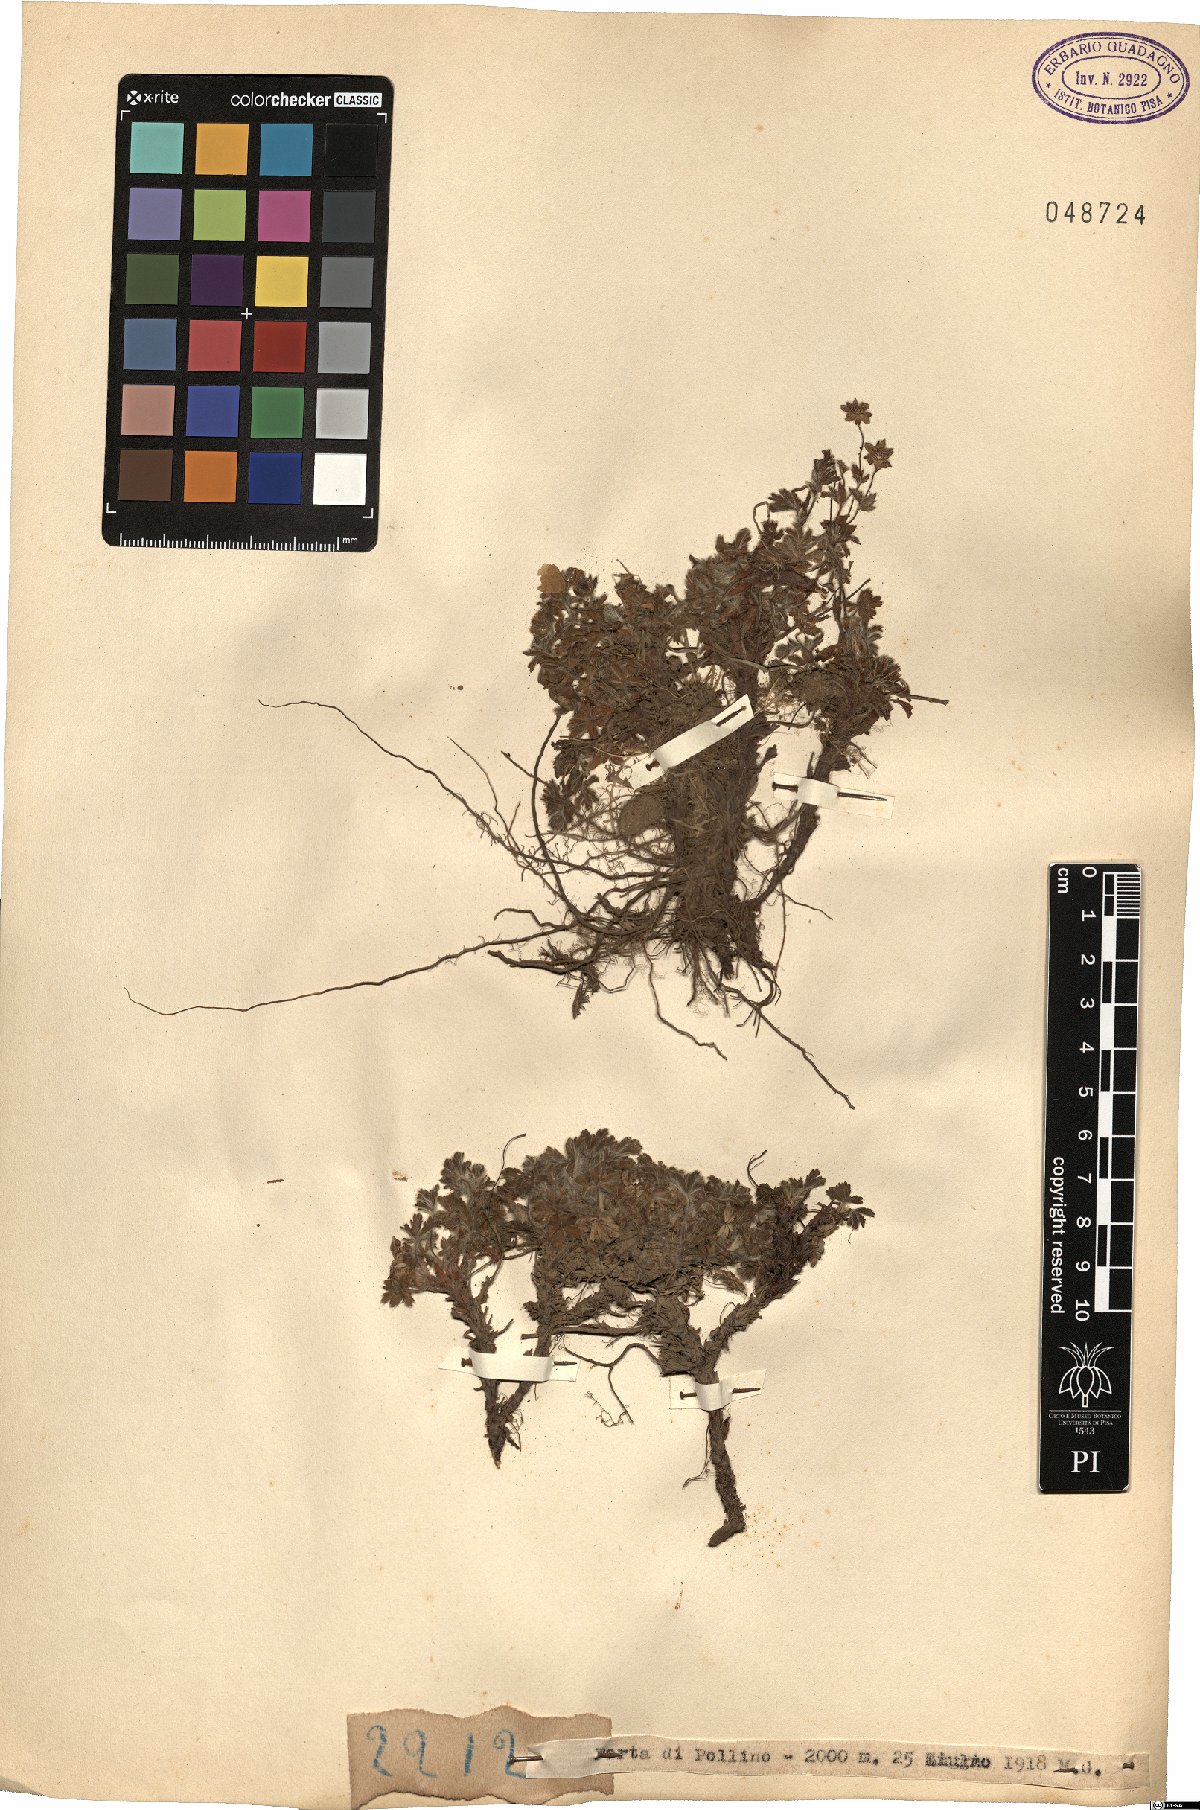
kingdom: Plantae
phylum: Tracheophyta
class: Magnoliopsida
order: Rosales
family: Rosaceae
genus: Potentilla
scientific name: Potentilla
